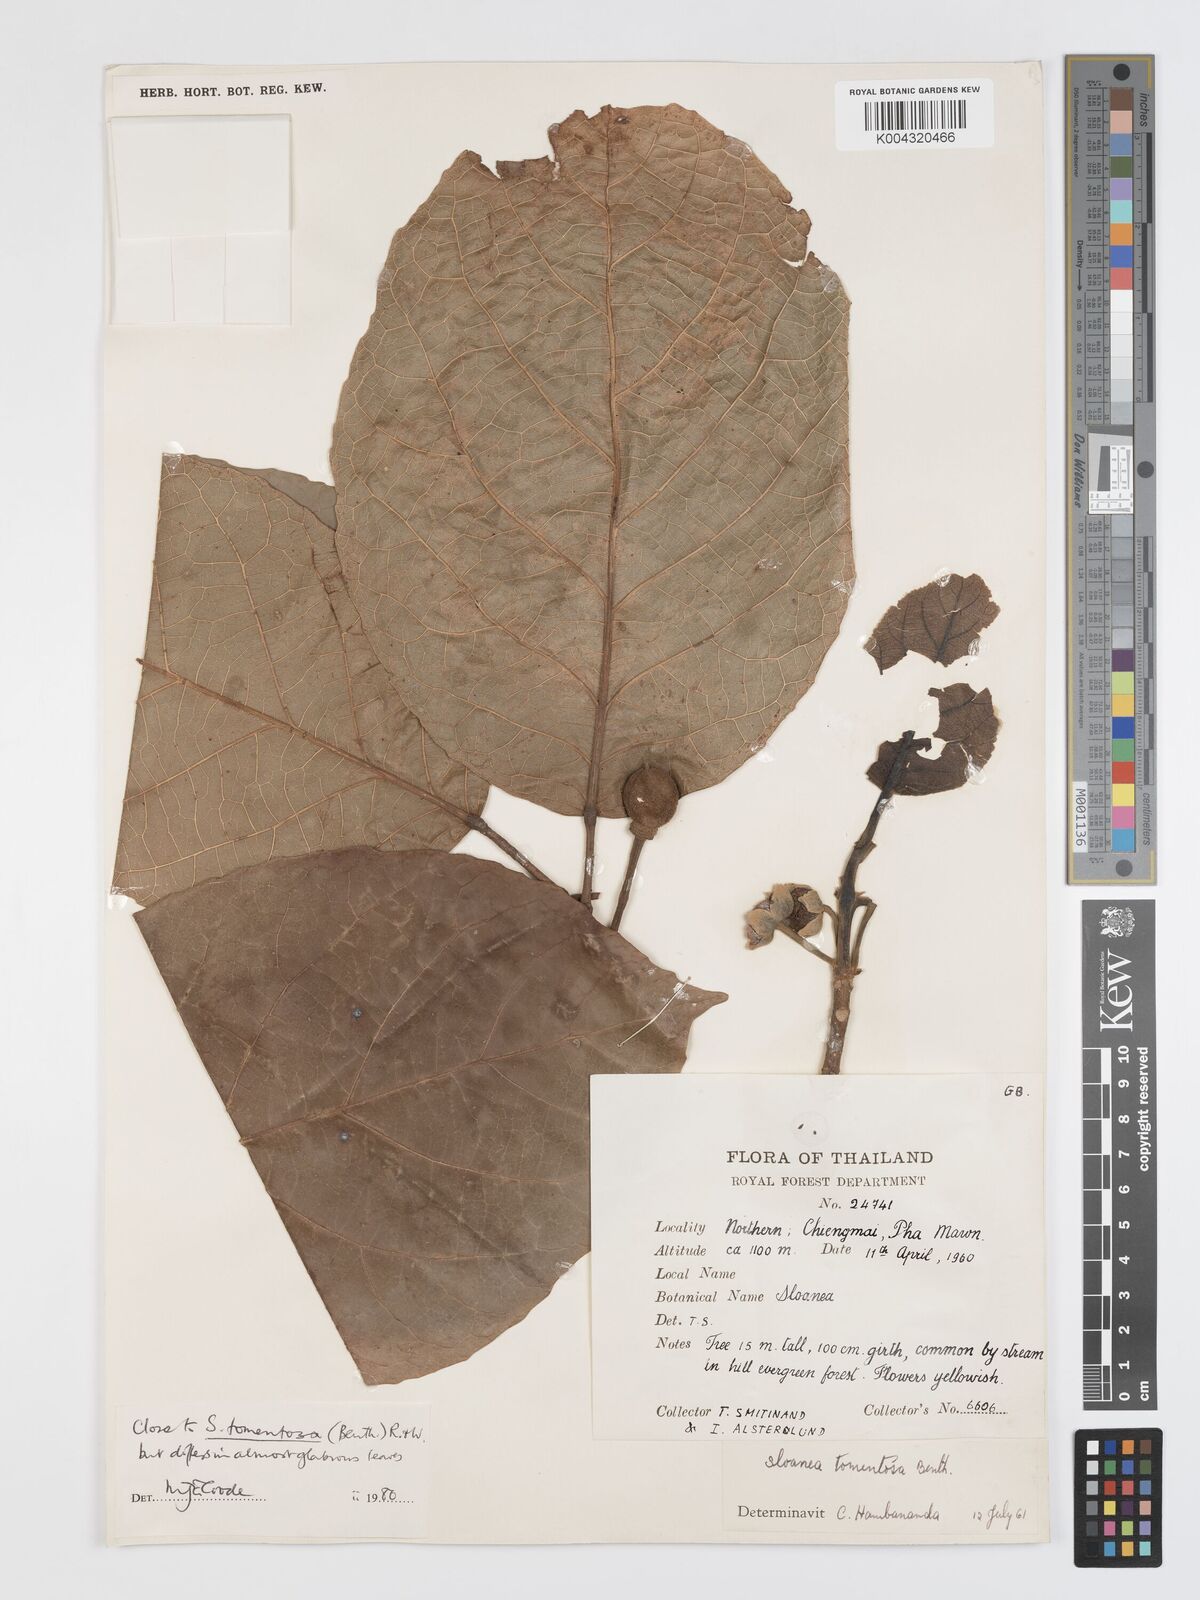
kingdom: Plantae
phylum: Tracheophyta
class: Magnoliopsida
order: Oxalidales
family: Elaeocarpaceae
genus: Sloanea
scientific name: Sloanea tomentosa
